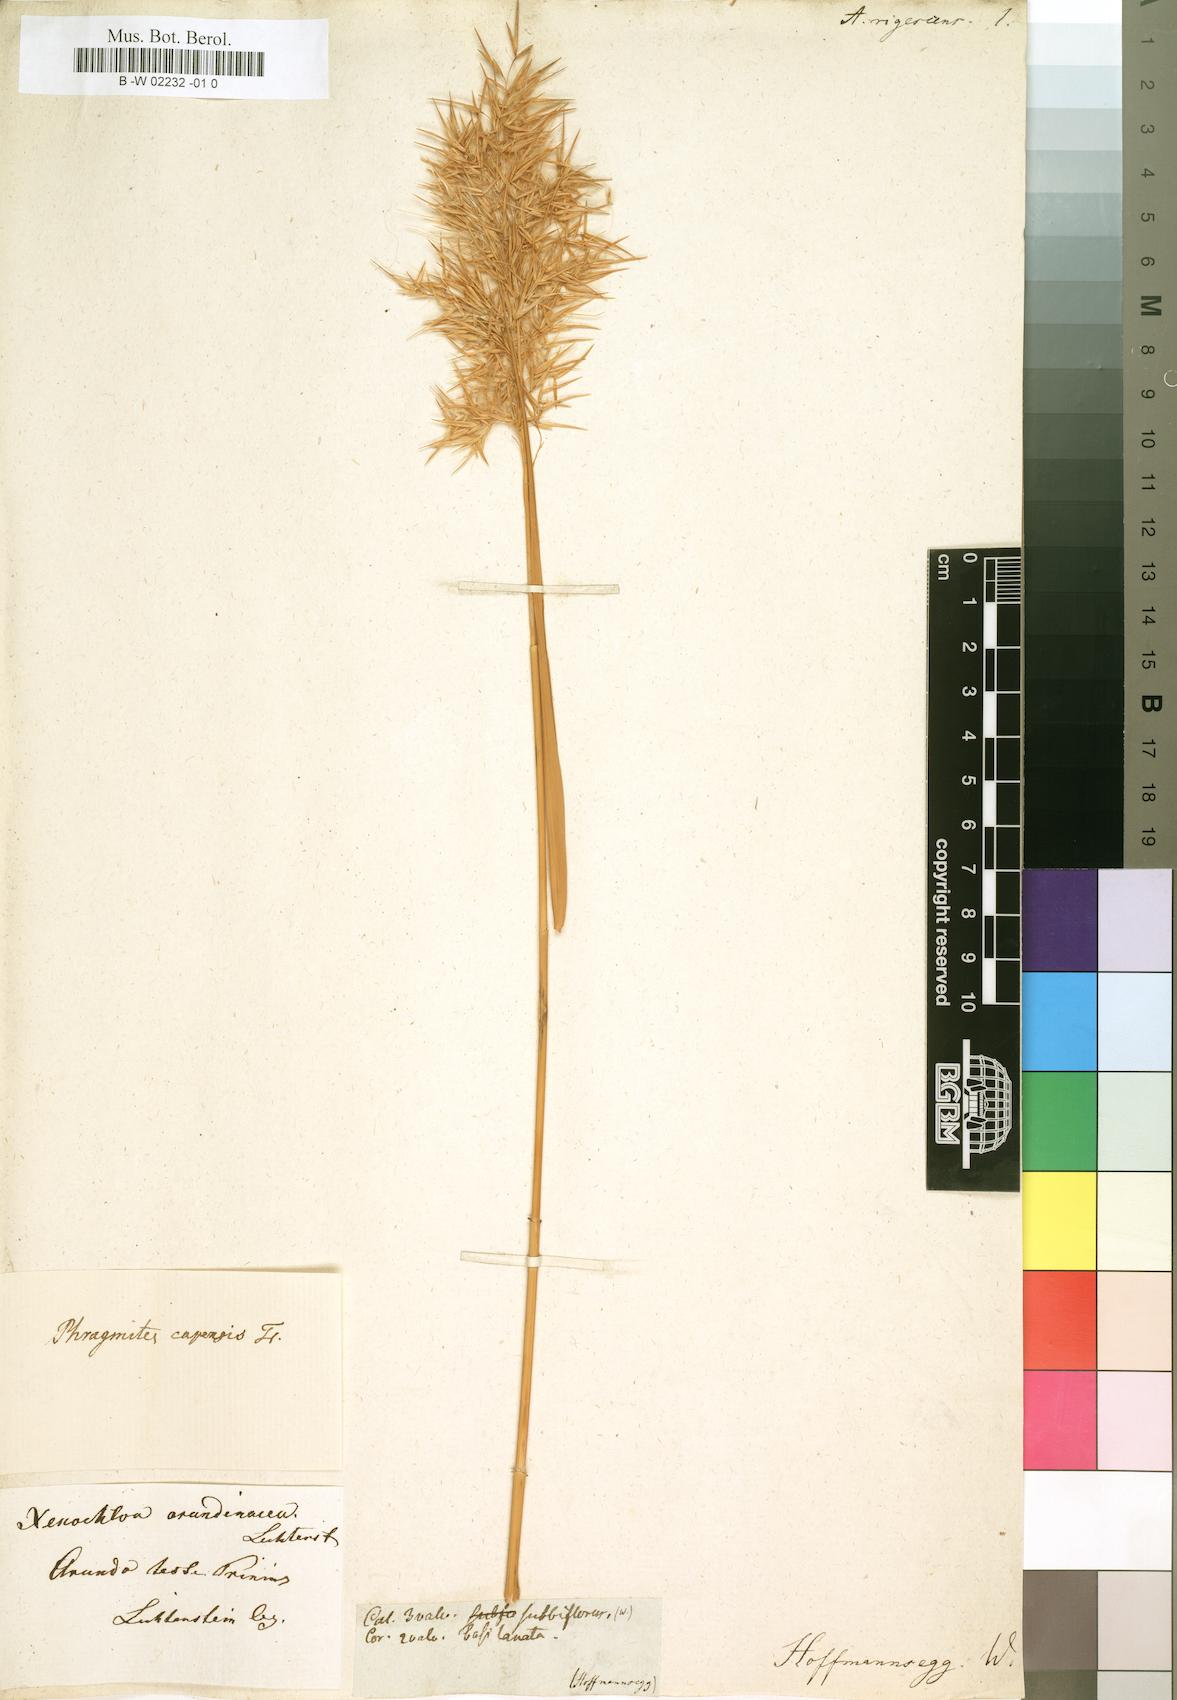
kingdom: Plantae
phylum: Tracheophyta
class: Liliopsida
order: Poales
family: Poaceae
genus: Arundo
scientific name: Arundo
